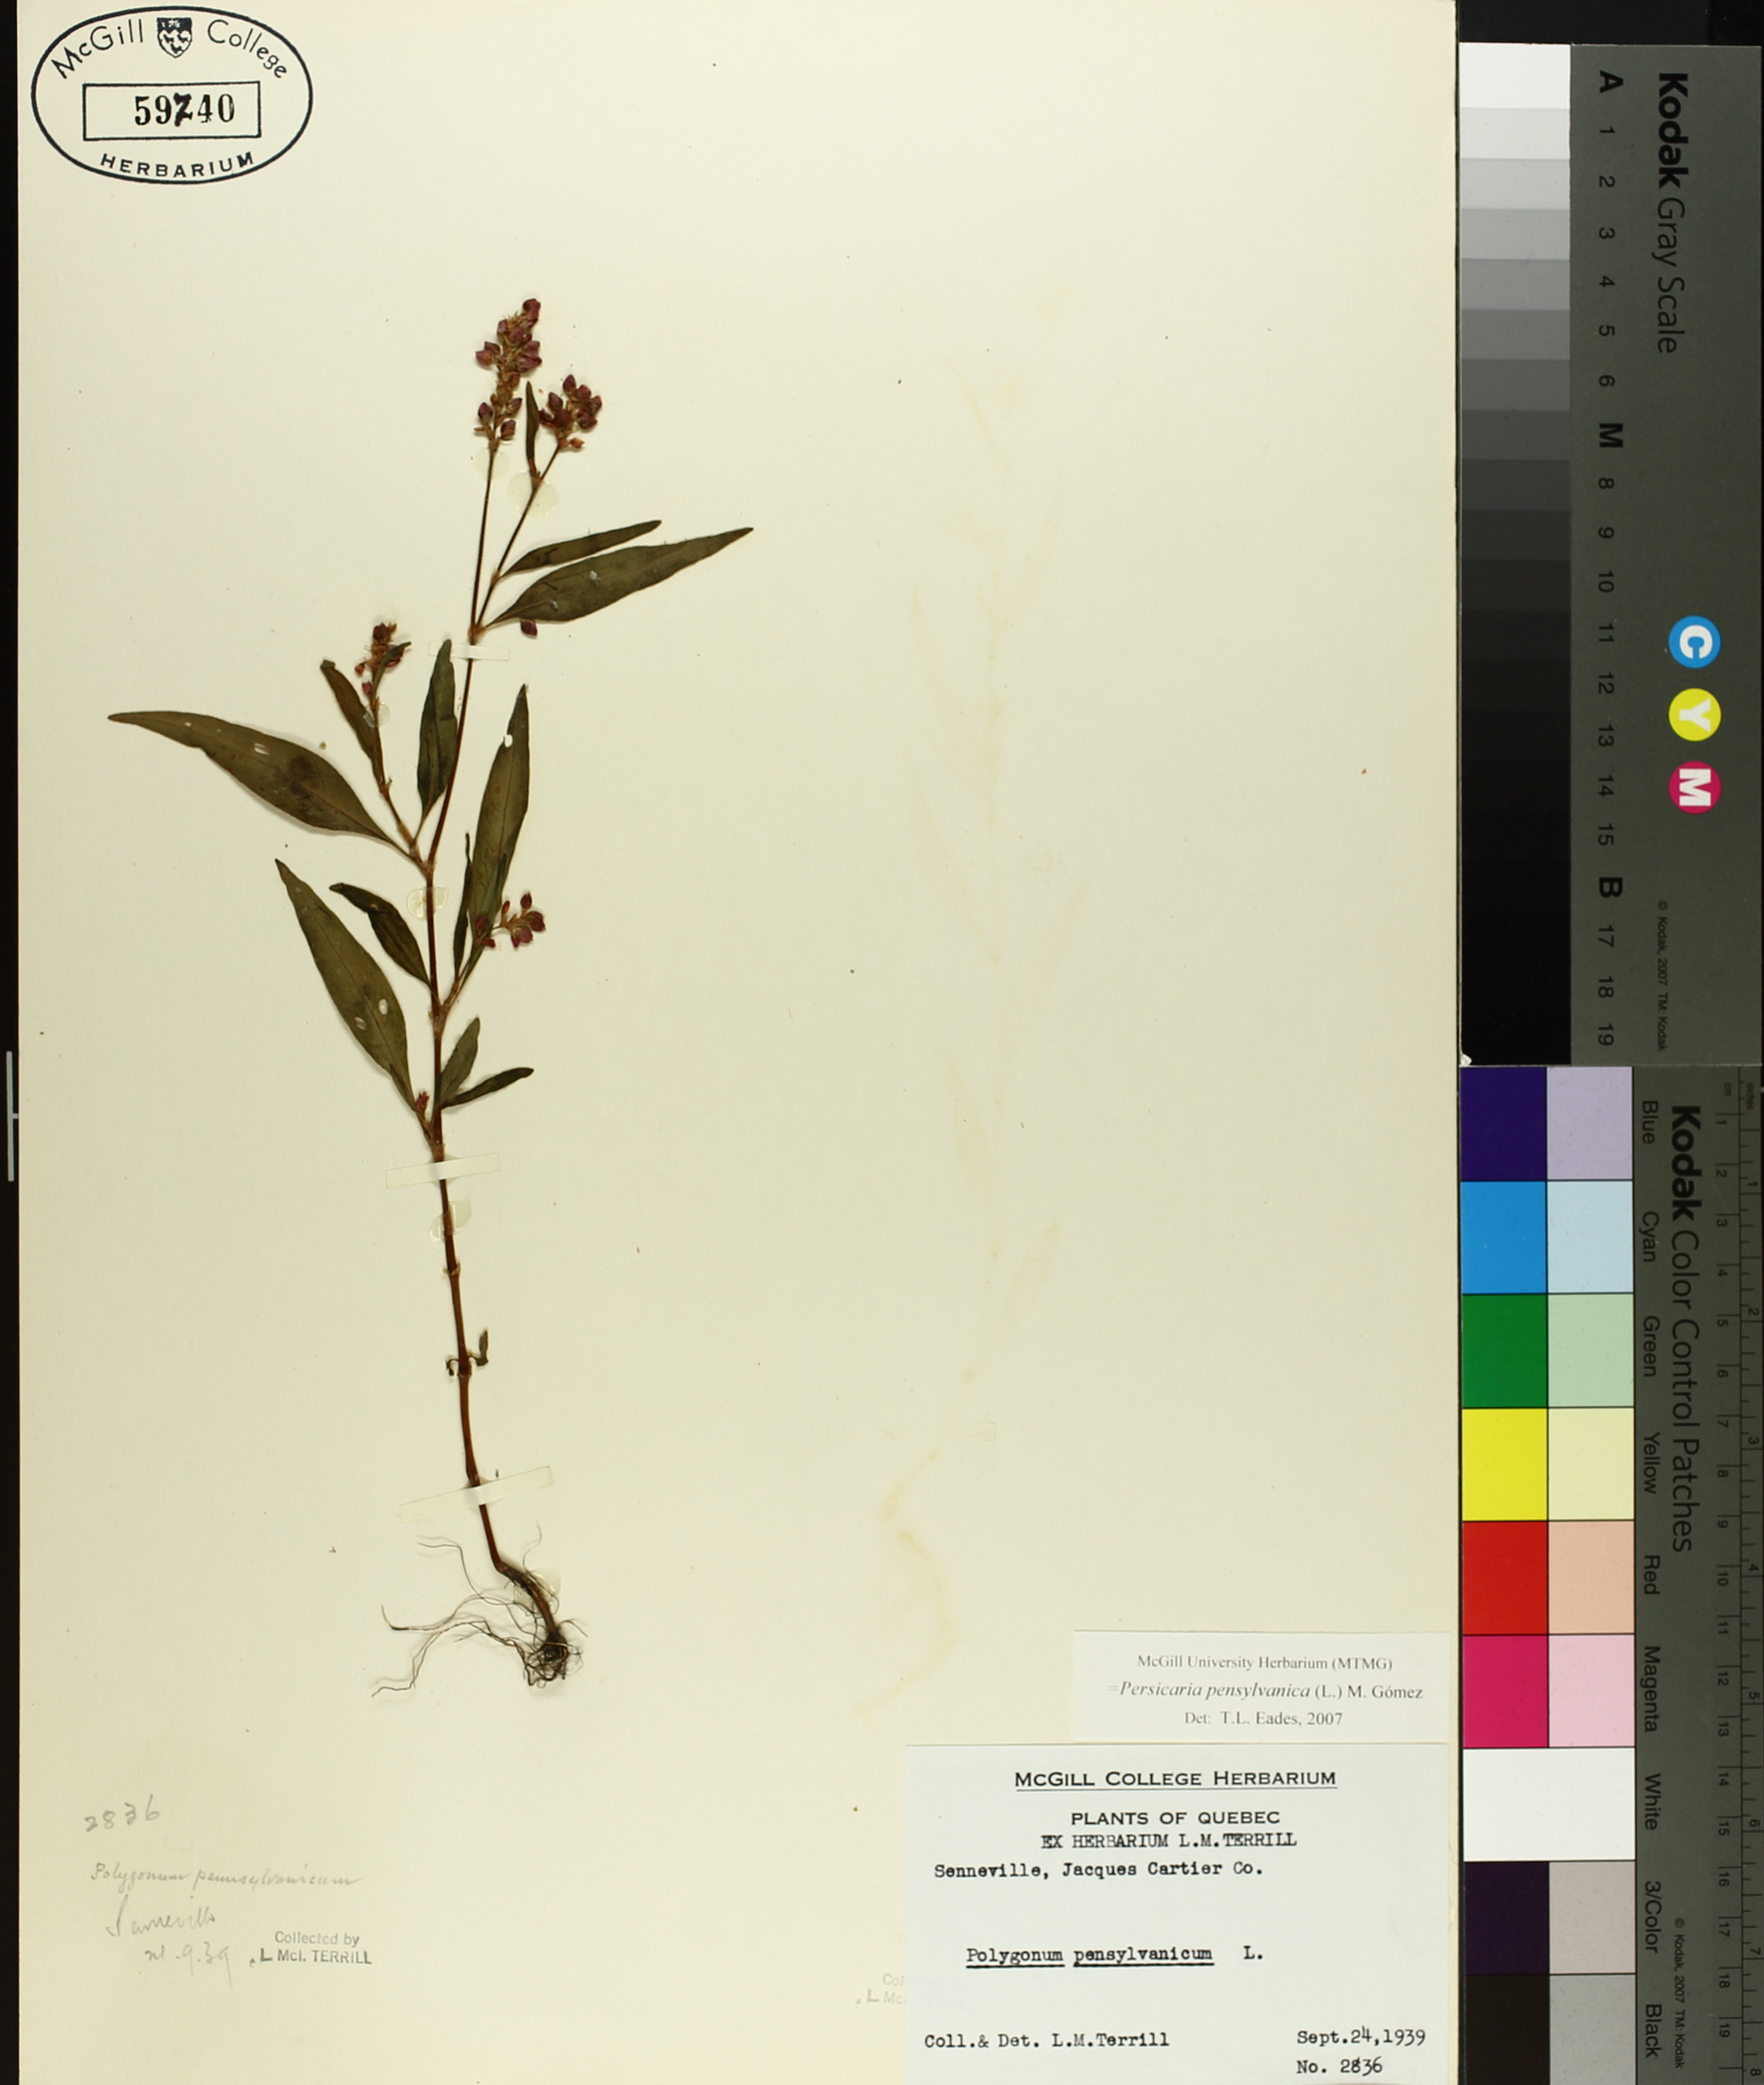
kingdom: Plantae
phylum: Tracheophyta
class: Magnoliopsida
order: Caryophyllales
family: Polygonaceae
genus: Persicaria
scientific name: Persicaria bungeana
